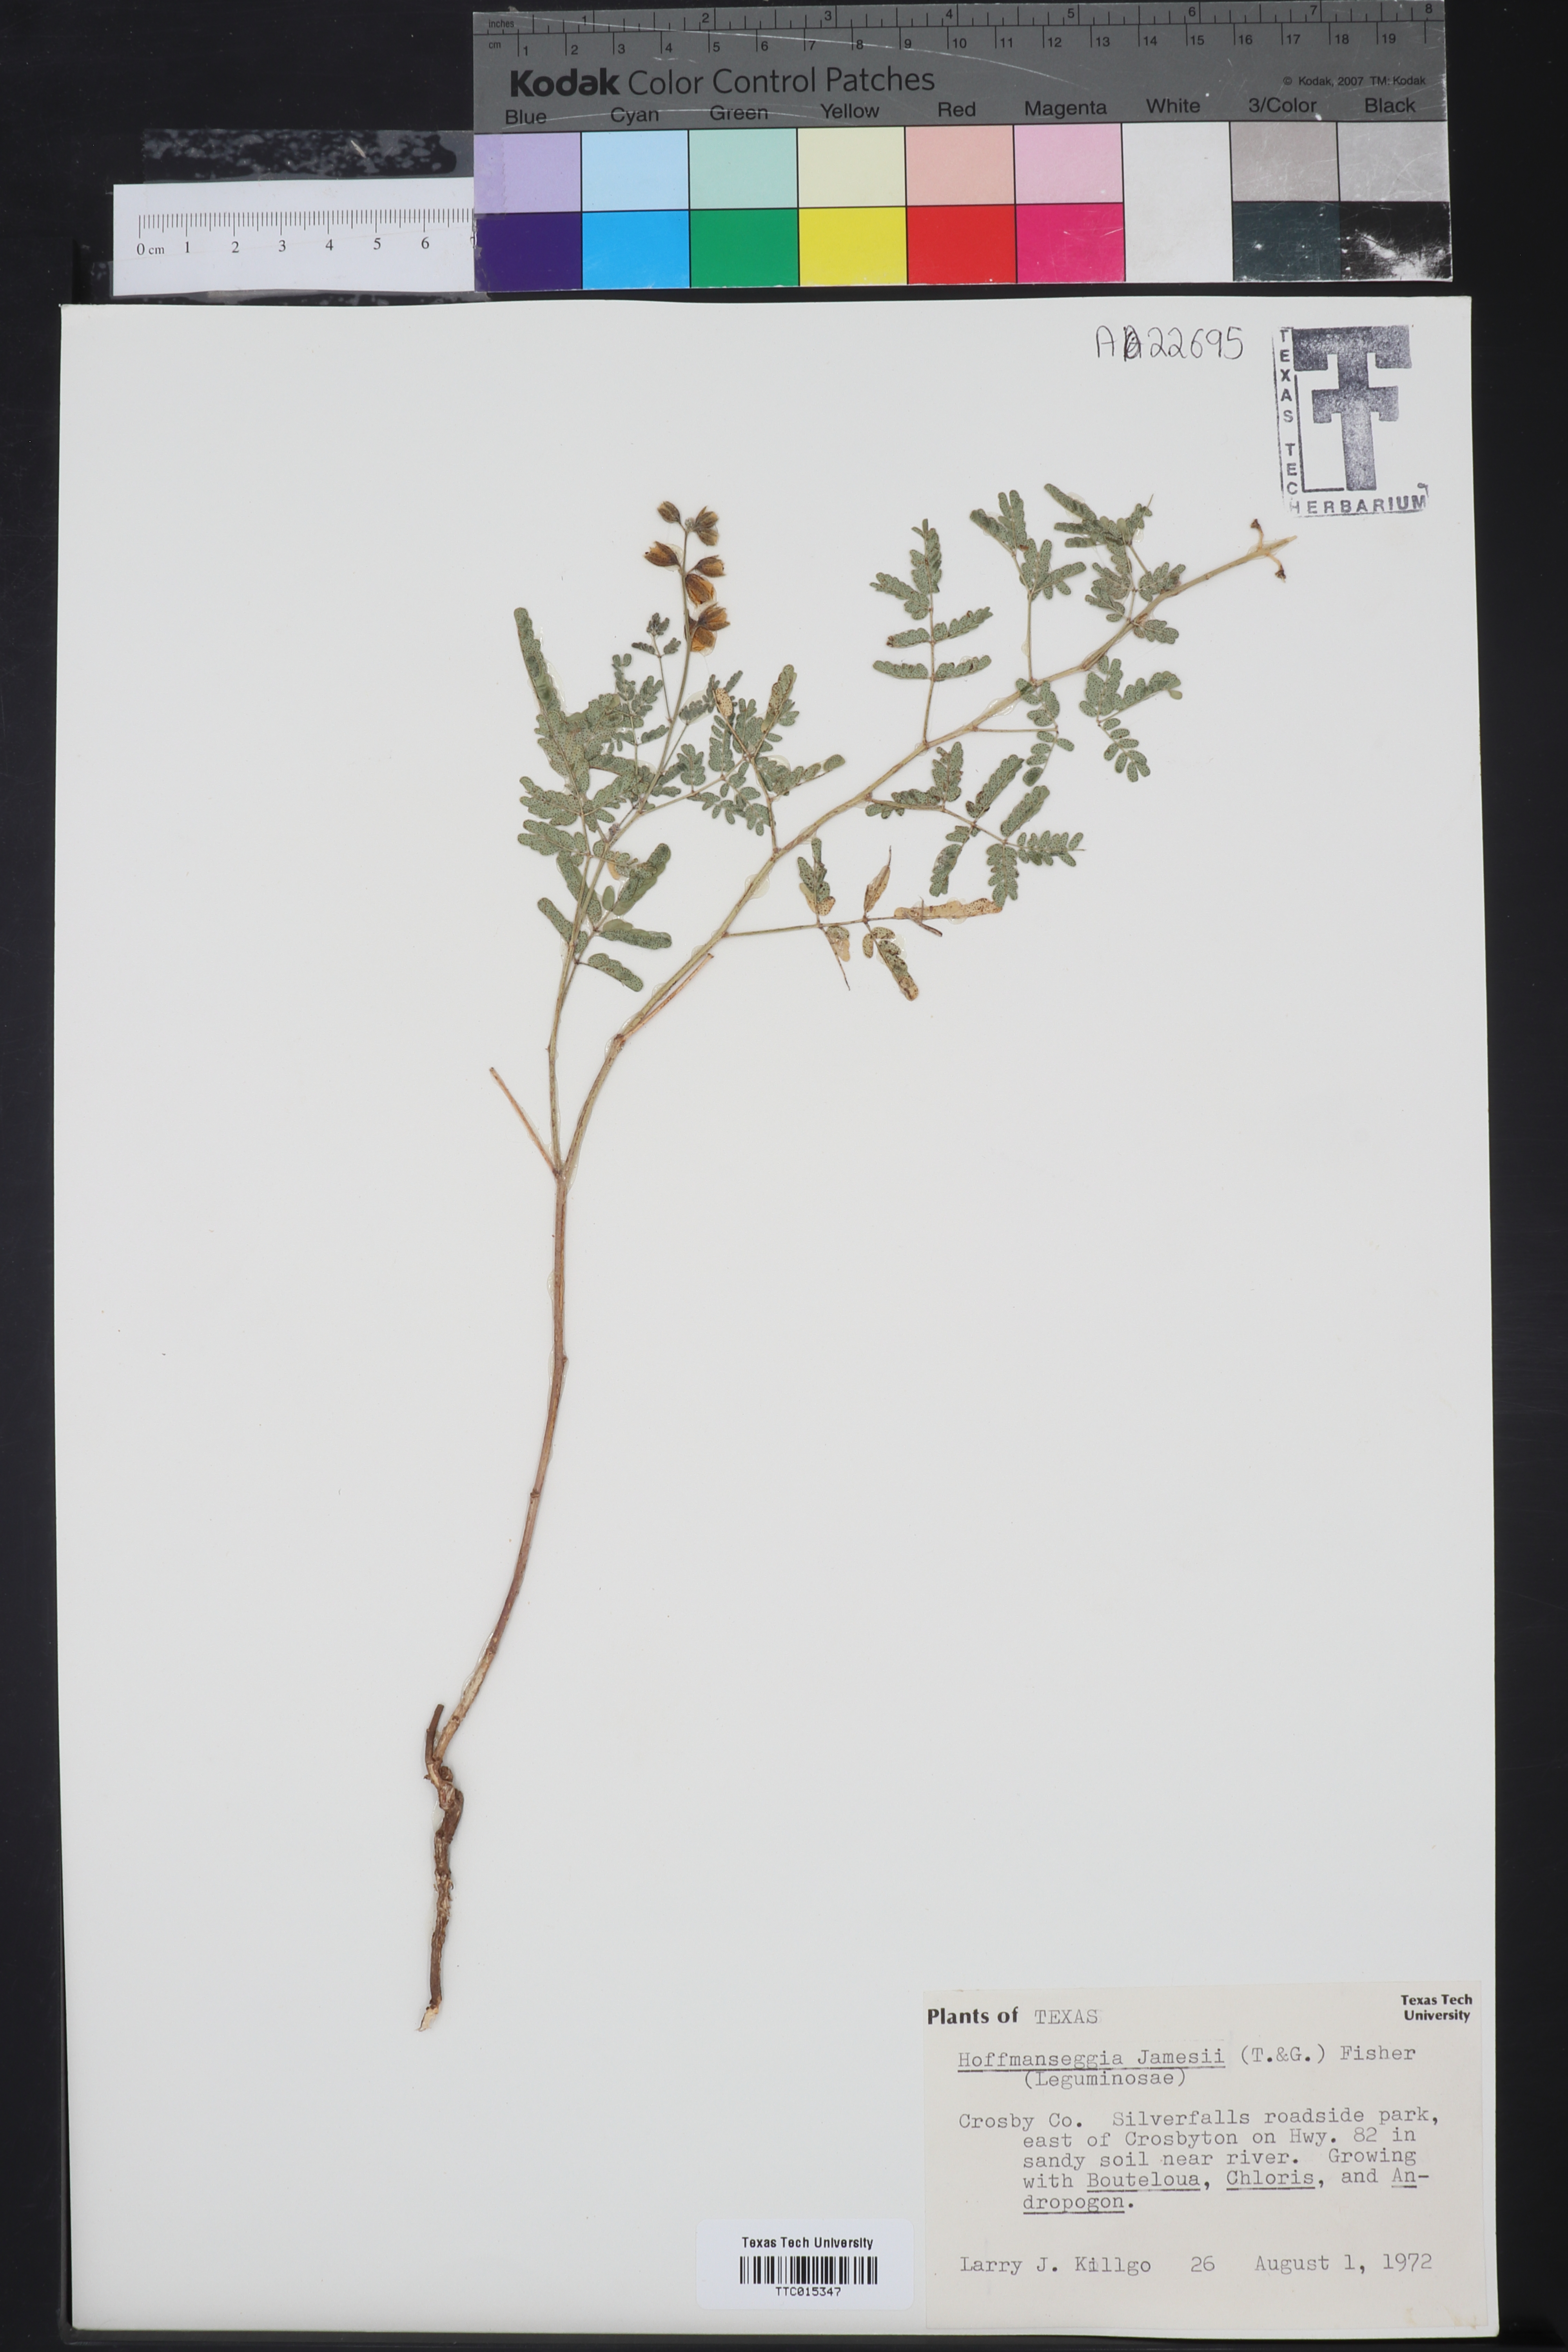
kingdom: Plantae
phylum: Tracheophyta
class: Magnoliopsida
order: Fabales
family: Fabaceae
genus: Pomaria
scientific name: Pomaria jamesii
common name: James' caesalpinia
